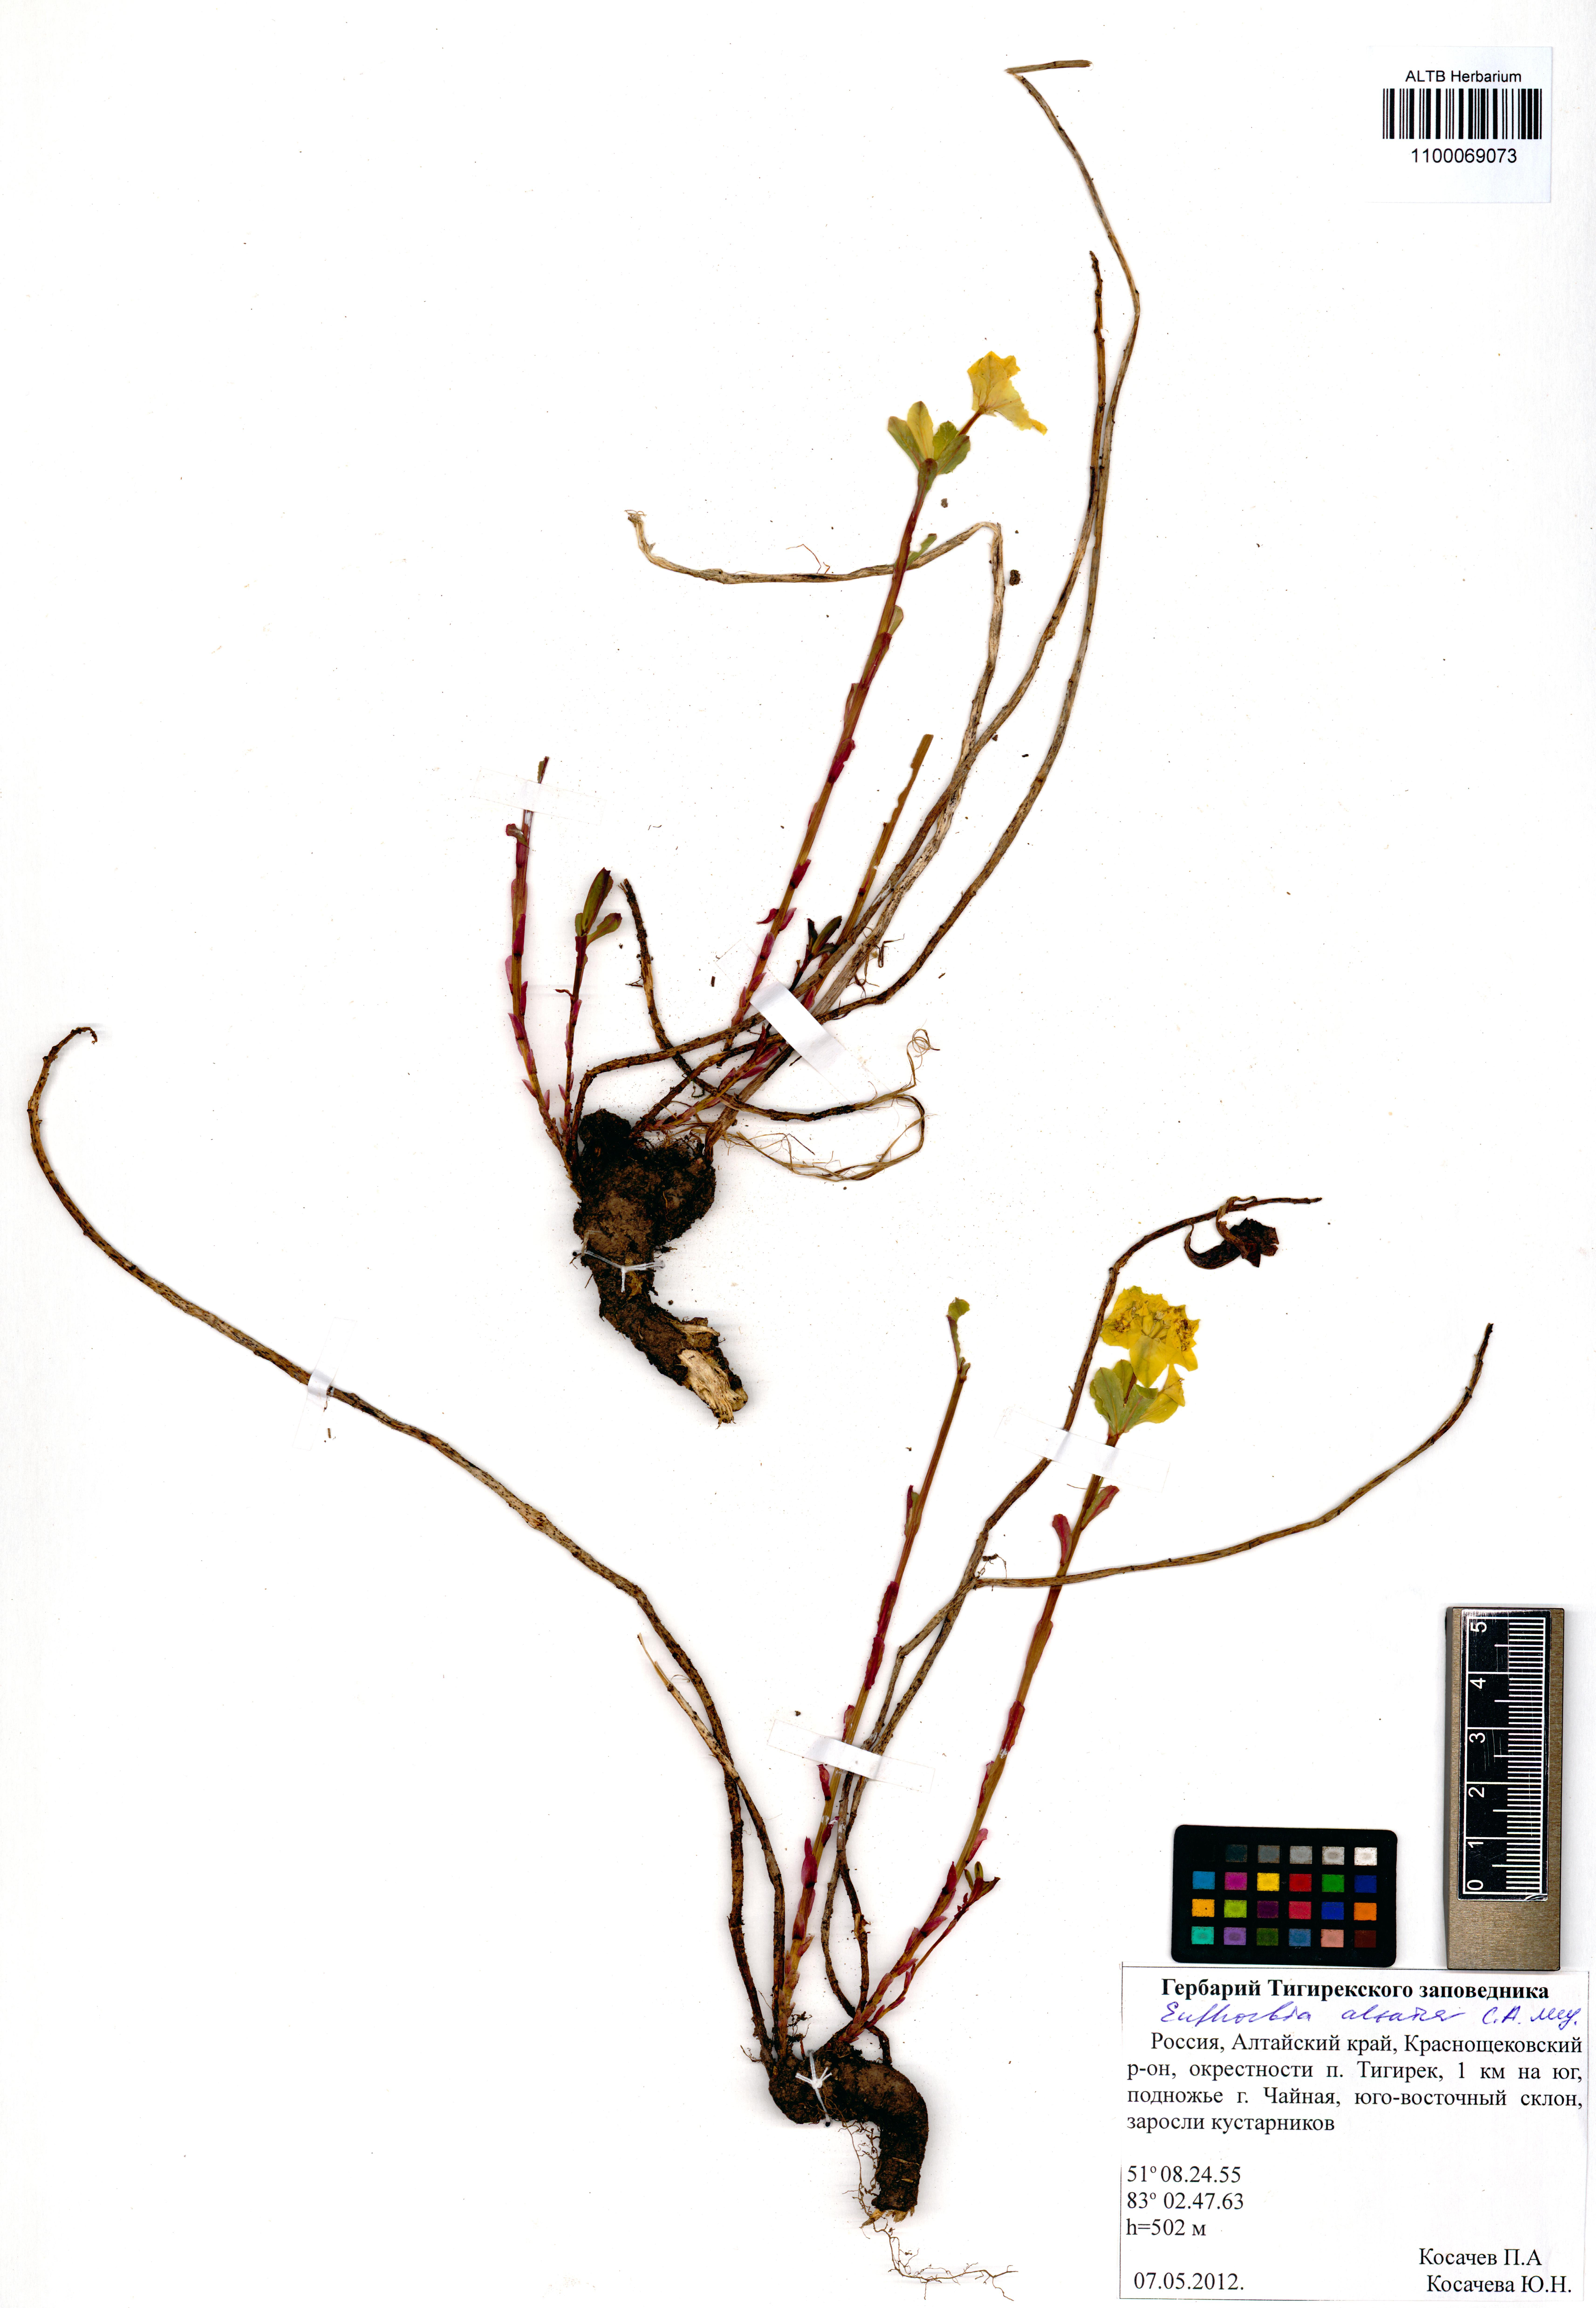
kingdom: Plantae
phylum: Tracheophyta
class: Magnoliopsida
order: Malpighiales
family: Euphorbiaceae
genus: Euphorbia
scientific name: Euphorbia altaica
